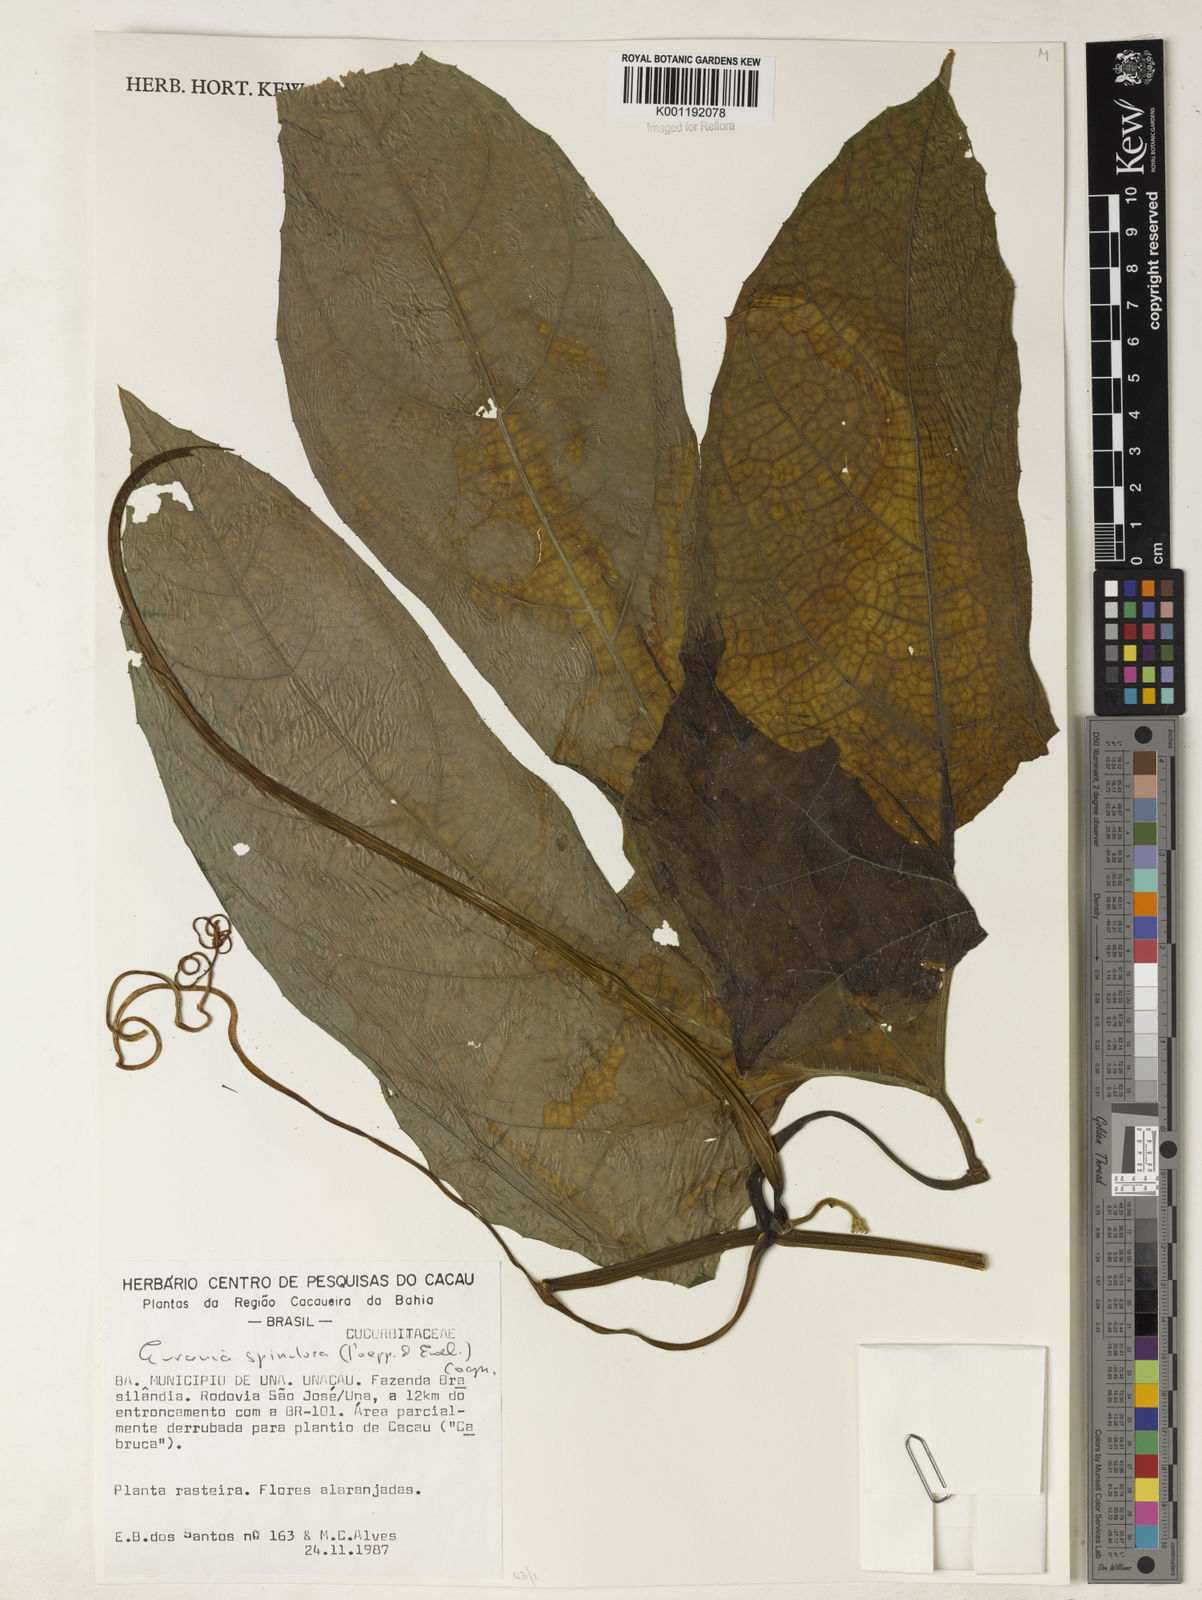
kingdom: Plantae
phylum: Tracheophyta
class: Magnoliopsida
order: Cucurbitales
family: Cucurbitaceae
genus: Gurania
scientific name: Gurania lobata
